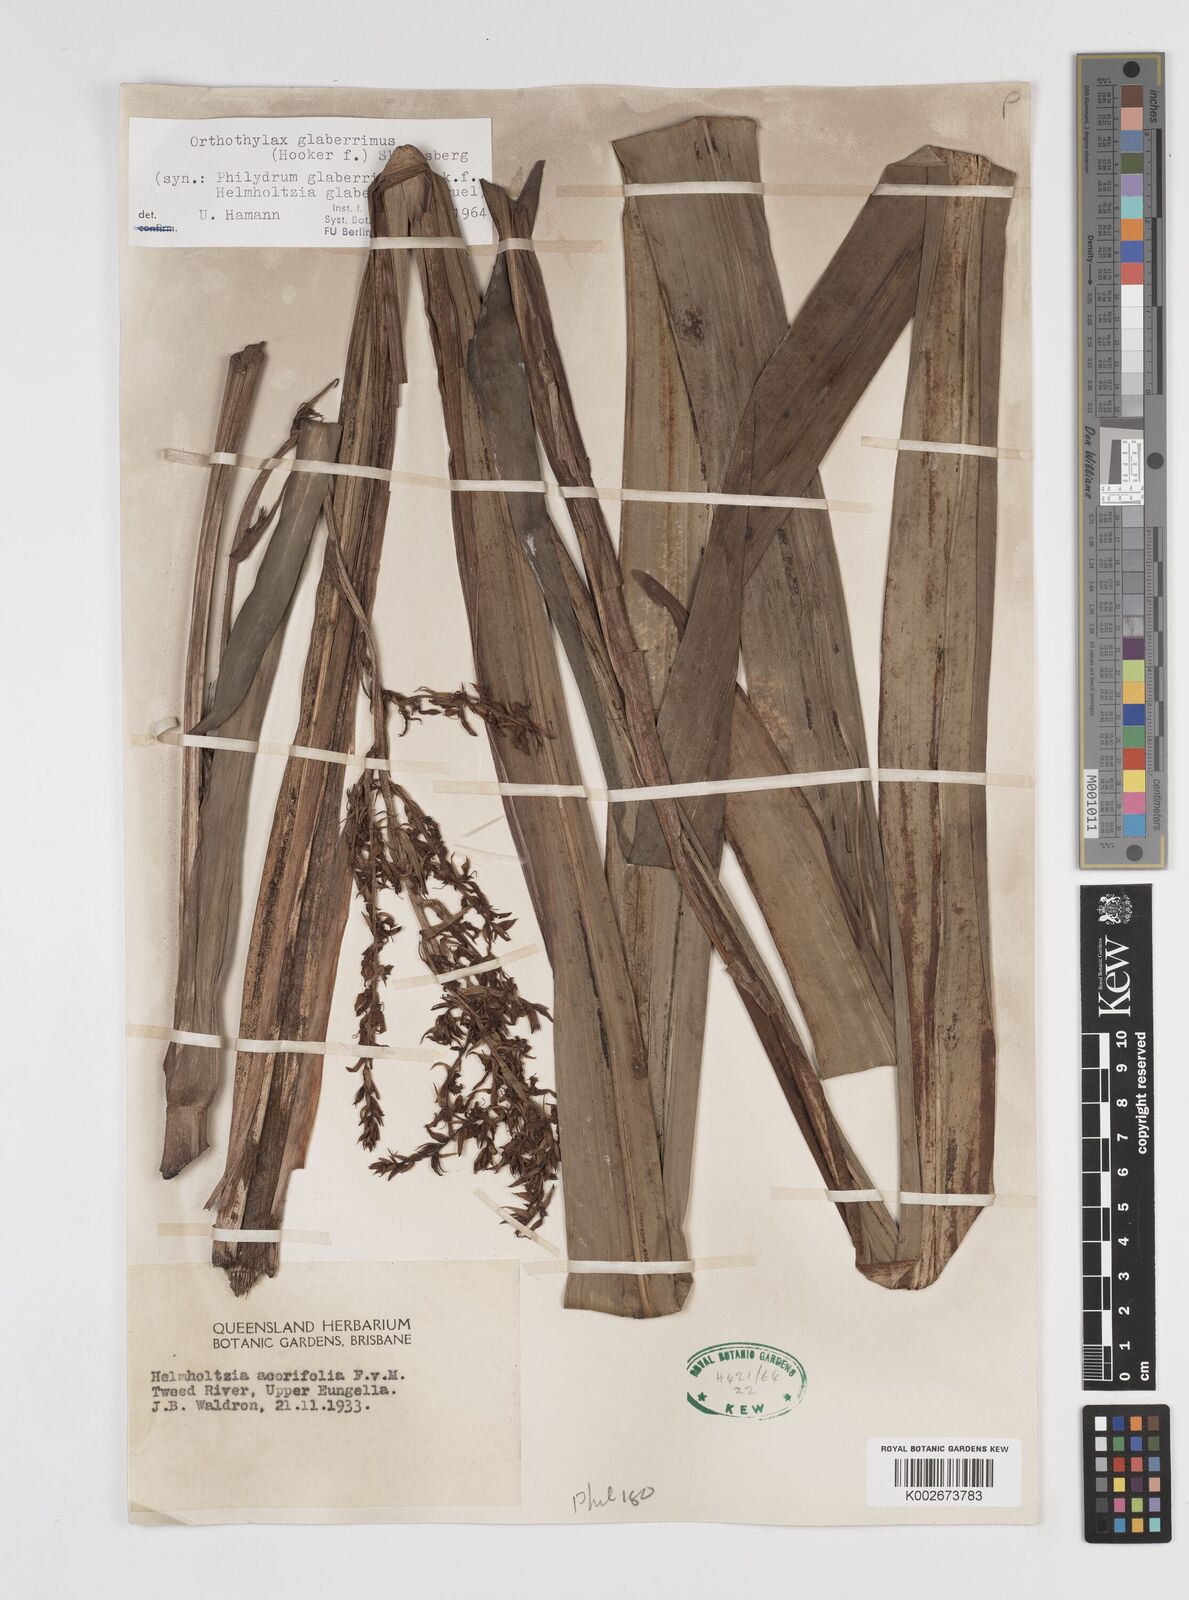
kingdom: Plantae
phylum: Tracheophyta
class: Liliopsida
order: Commelinales
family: Philydraceae
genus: Helmholtzia
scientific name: Helmholtzia glaberrima
